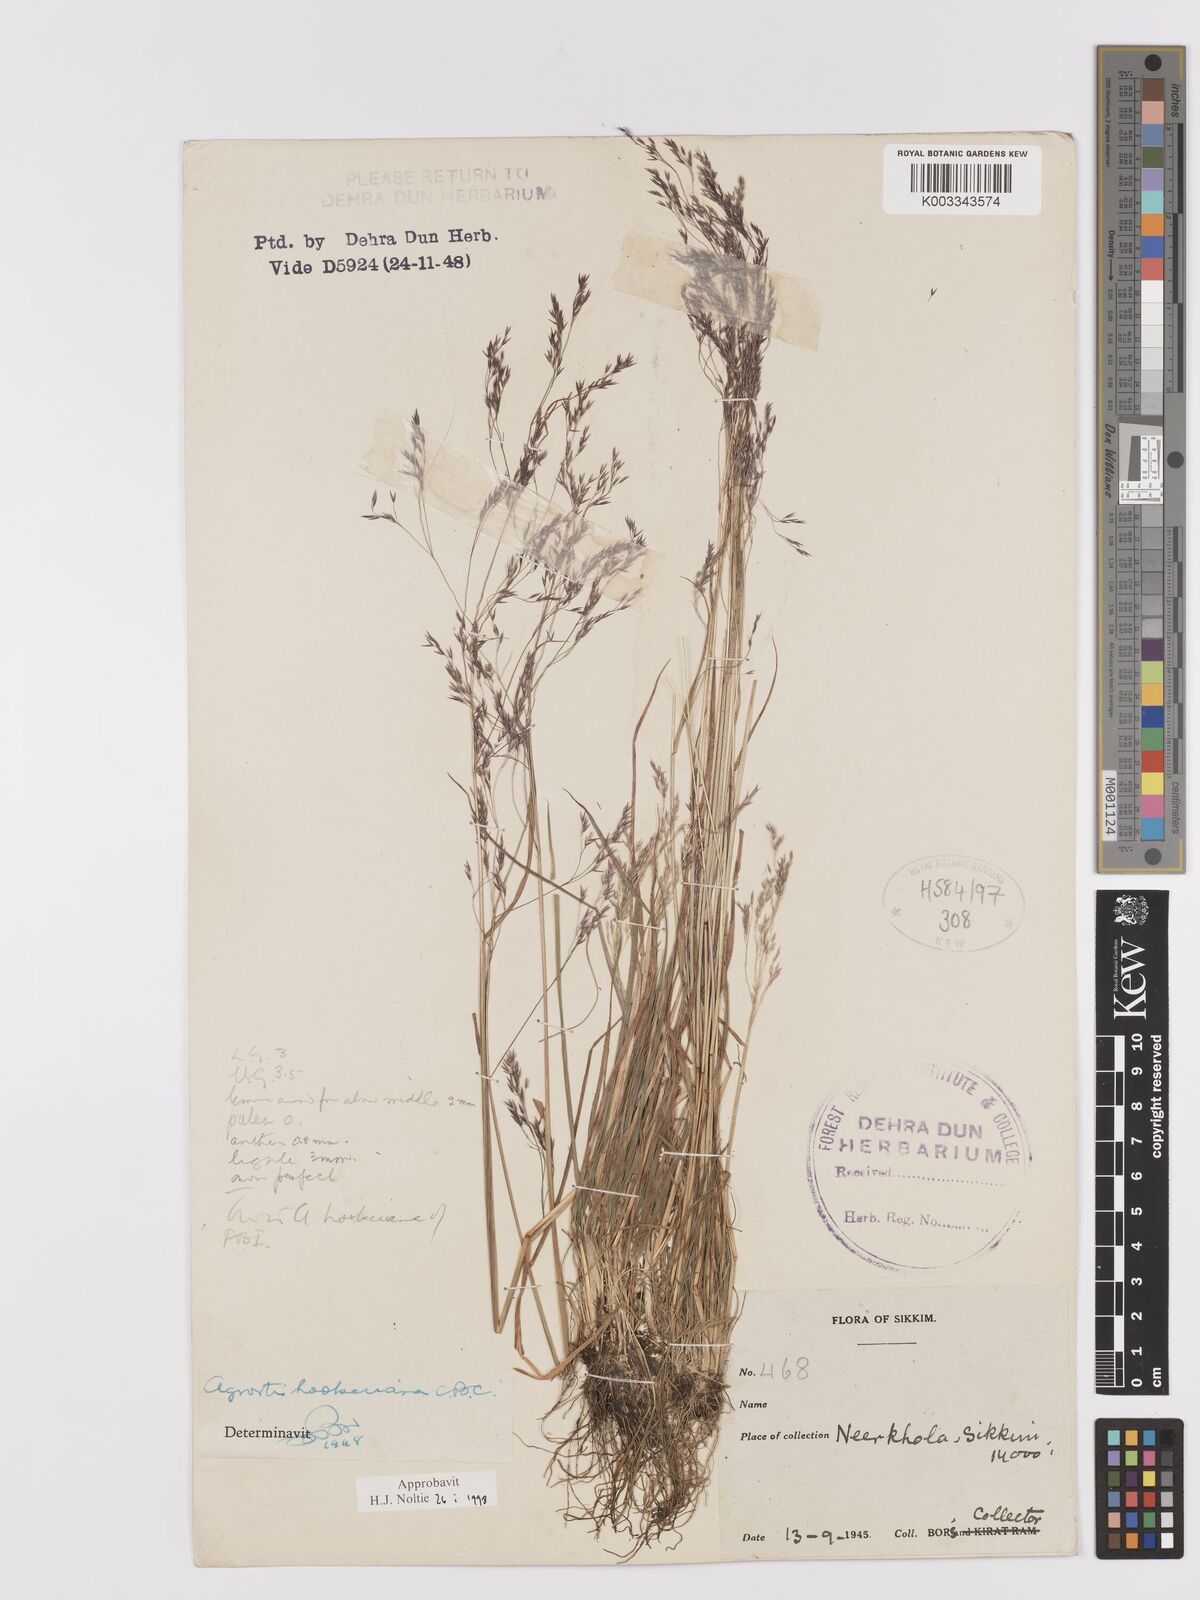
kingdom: Plantae
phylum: Tracheophyta
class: Liliopsida
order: Poales
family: Poaceae
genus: Agrostis
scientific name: Agrostis hookeriana
